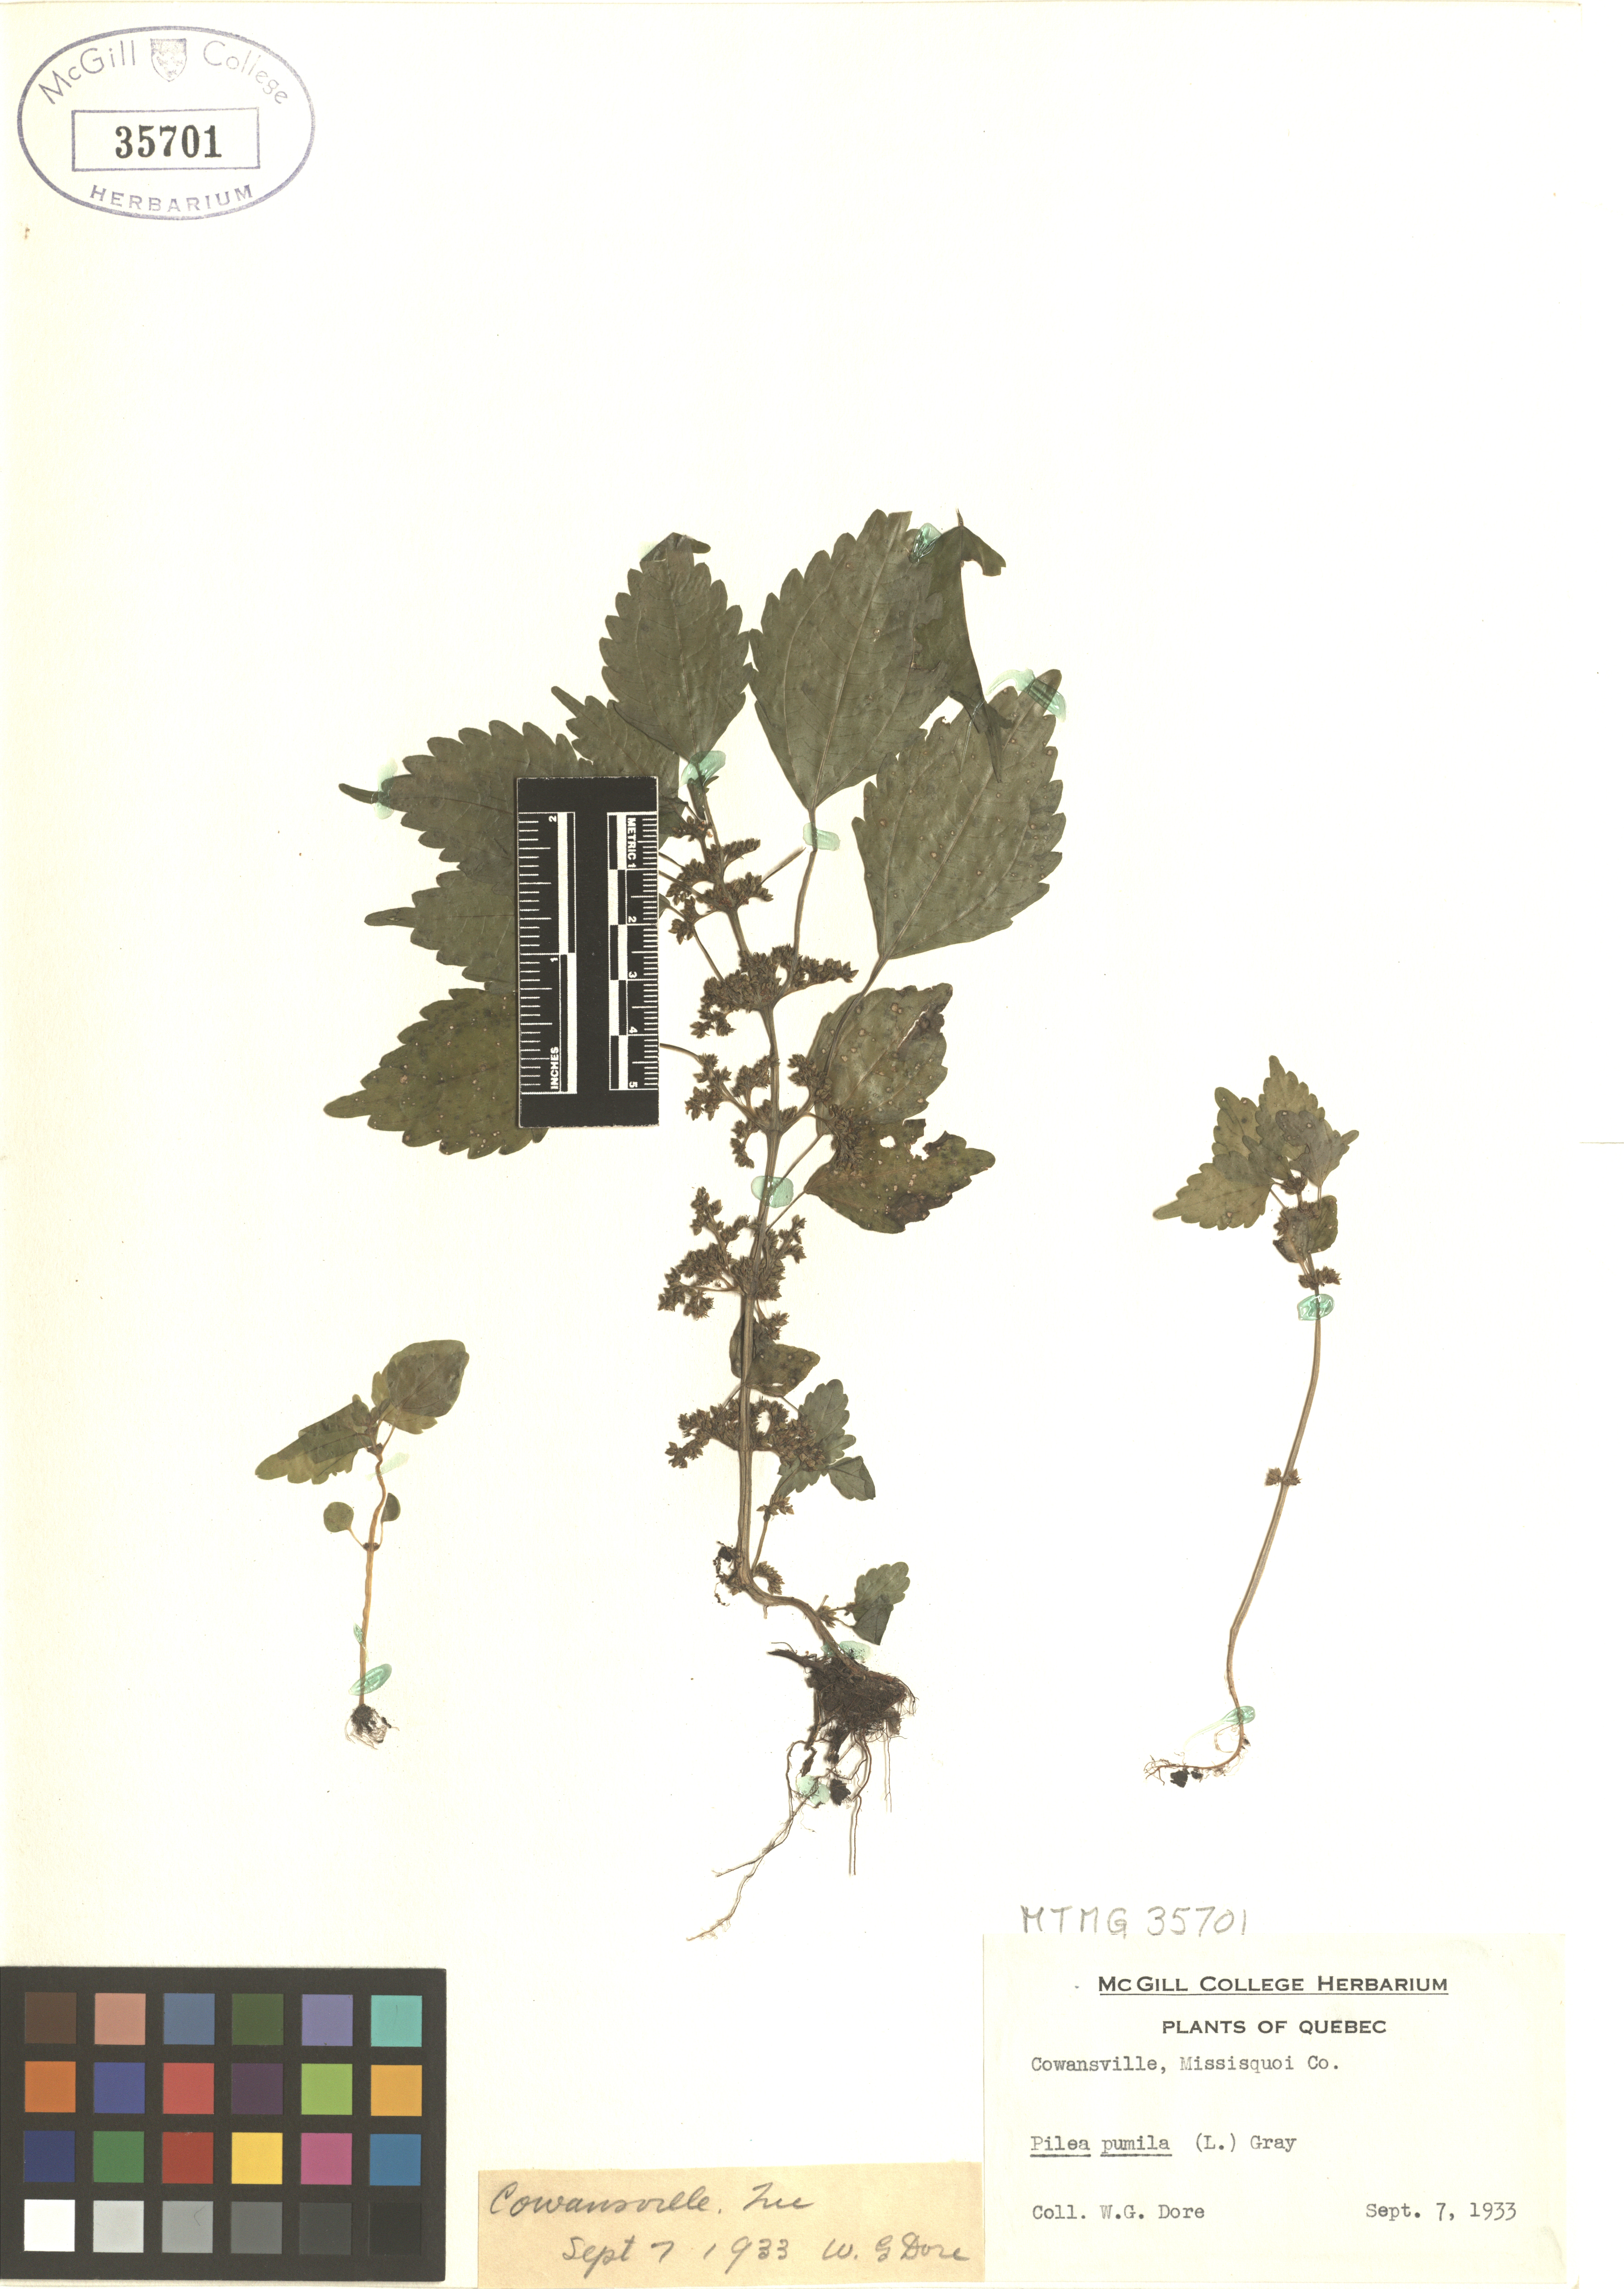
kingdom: Plantae
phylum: Tracheophyta
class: Magnoliopsida
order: Rosales
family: Urticaceae
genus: Pilea
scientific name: Pilea pumila
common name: Clearweed
